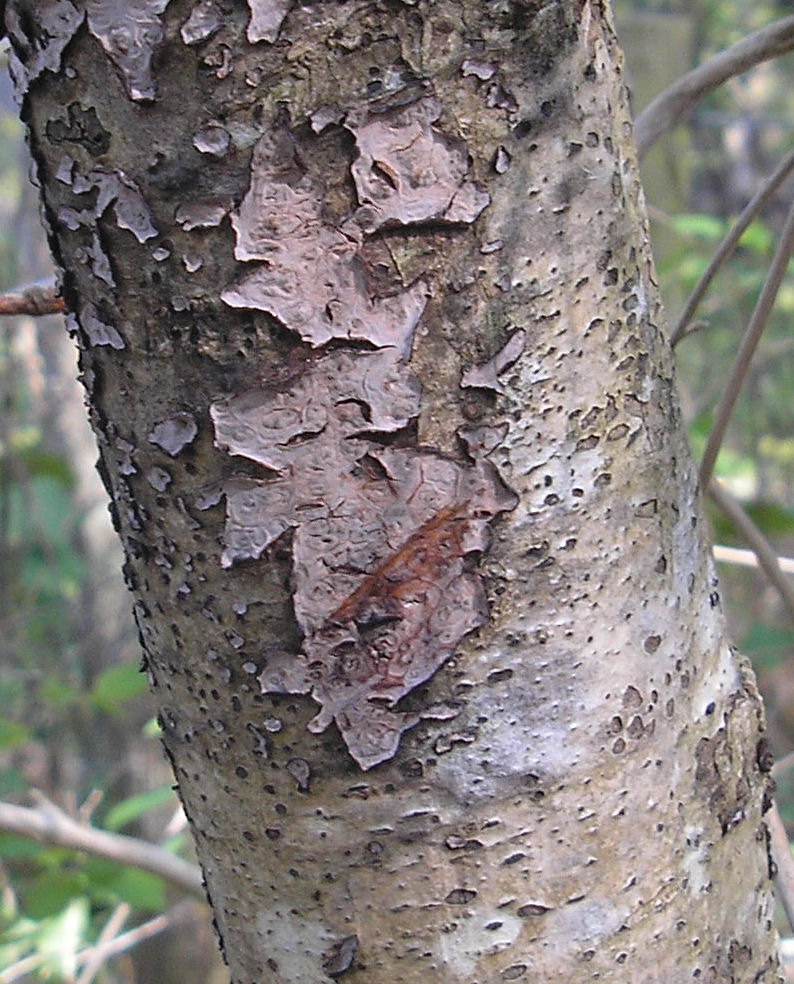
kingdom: Fungi
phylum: Basidiomycota
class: Agaricomycetes
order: Russulales
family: Stereaceae
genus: Stereum
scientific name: Stereum rugosum
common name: rynket lædersvamp
